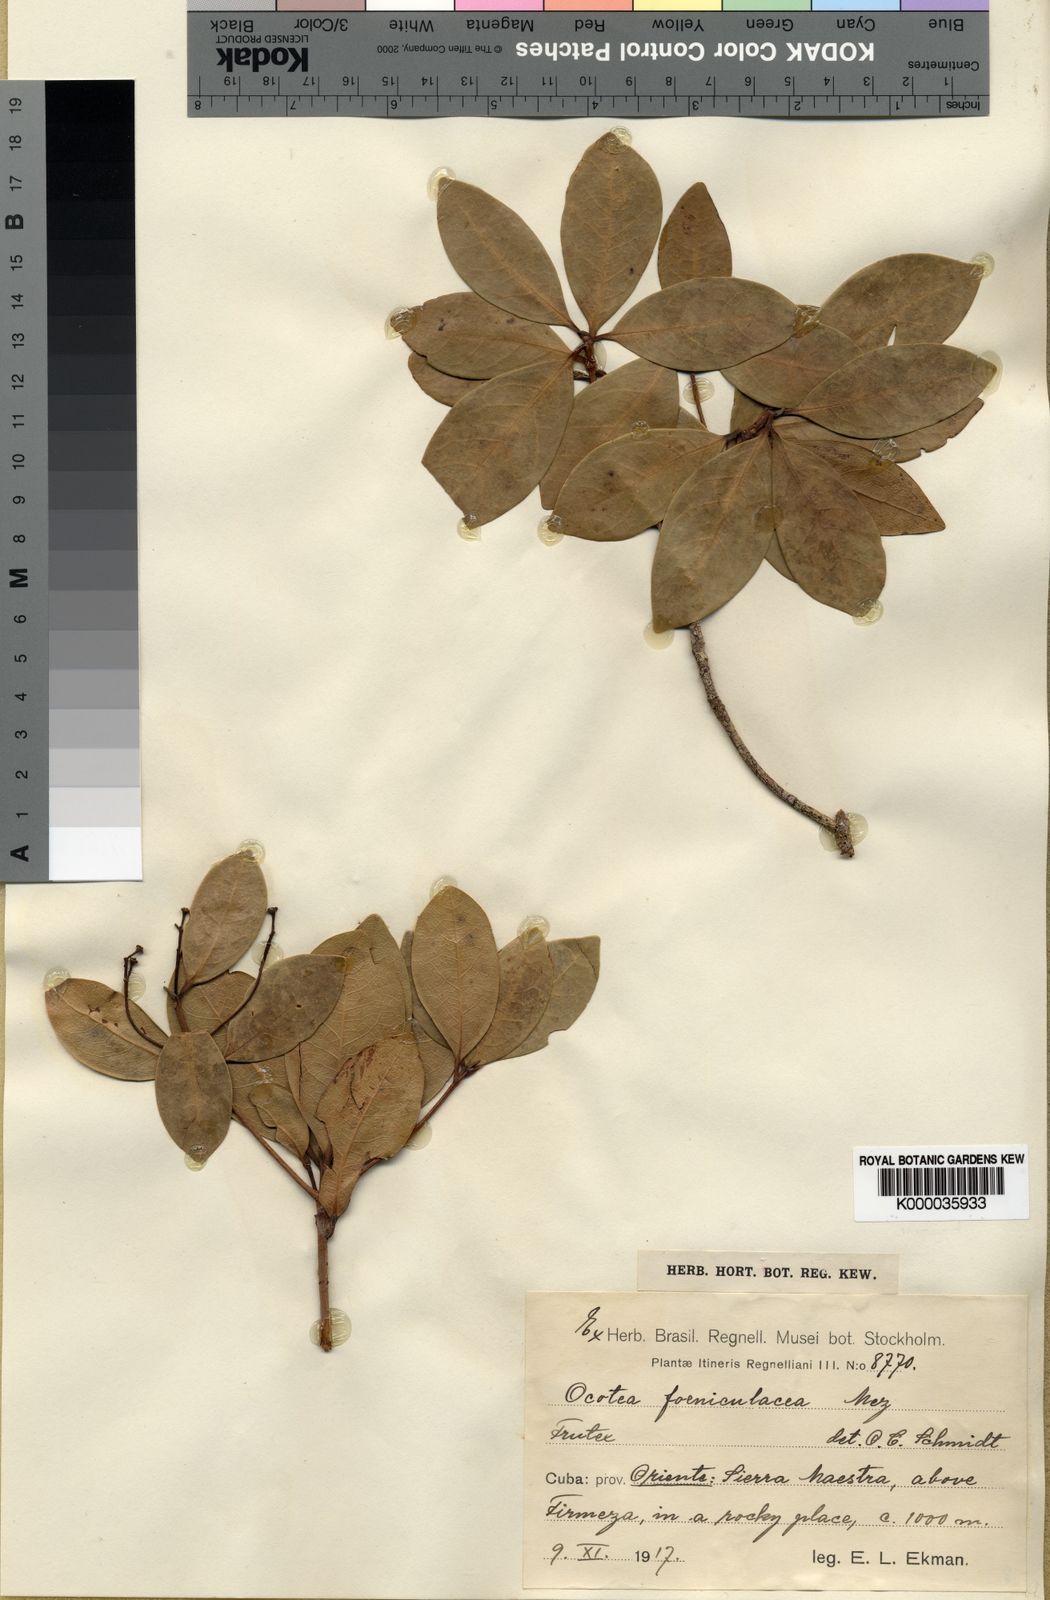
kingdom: Plantae
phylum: Tracheophyta
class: Magnoliopsida
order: Laurales
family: Lauraceae
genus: Ocotea
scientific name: Ocotea foeniculacea
